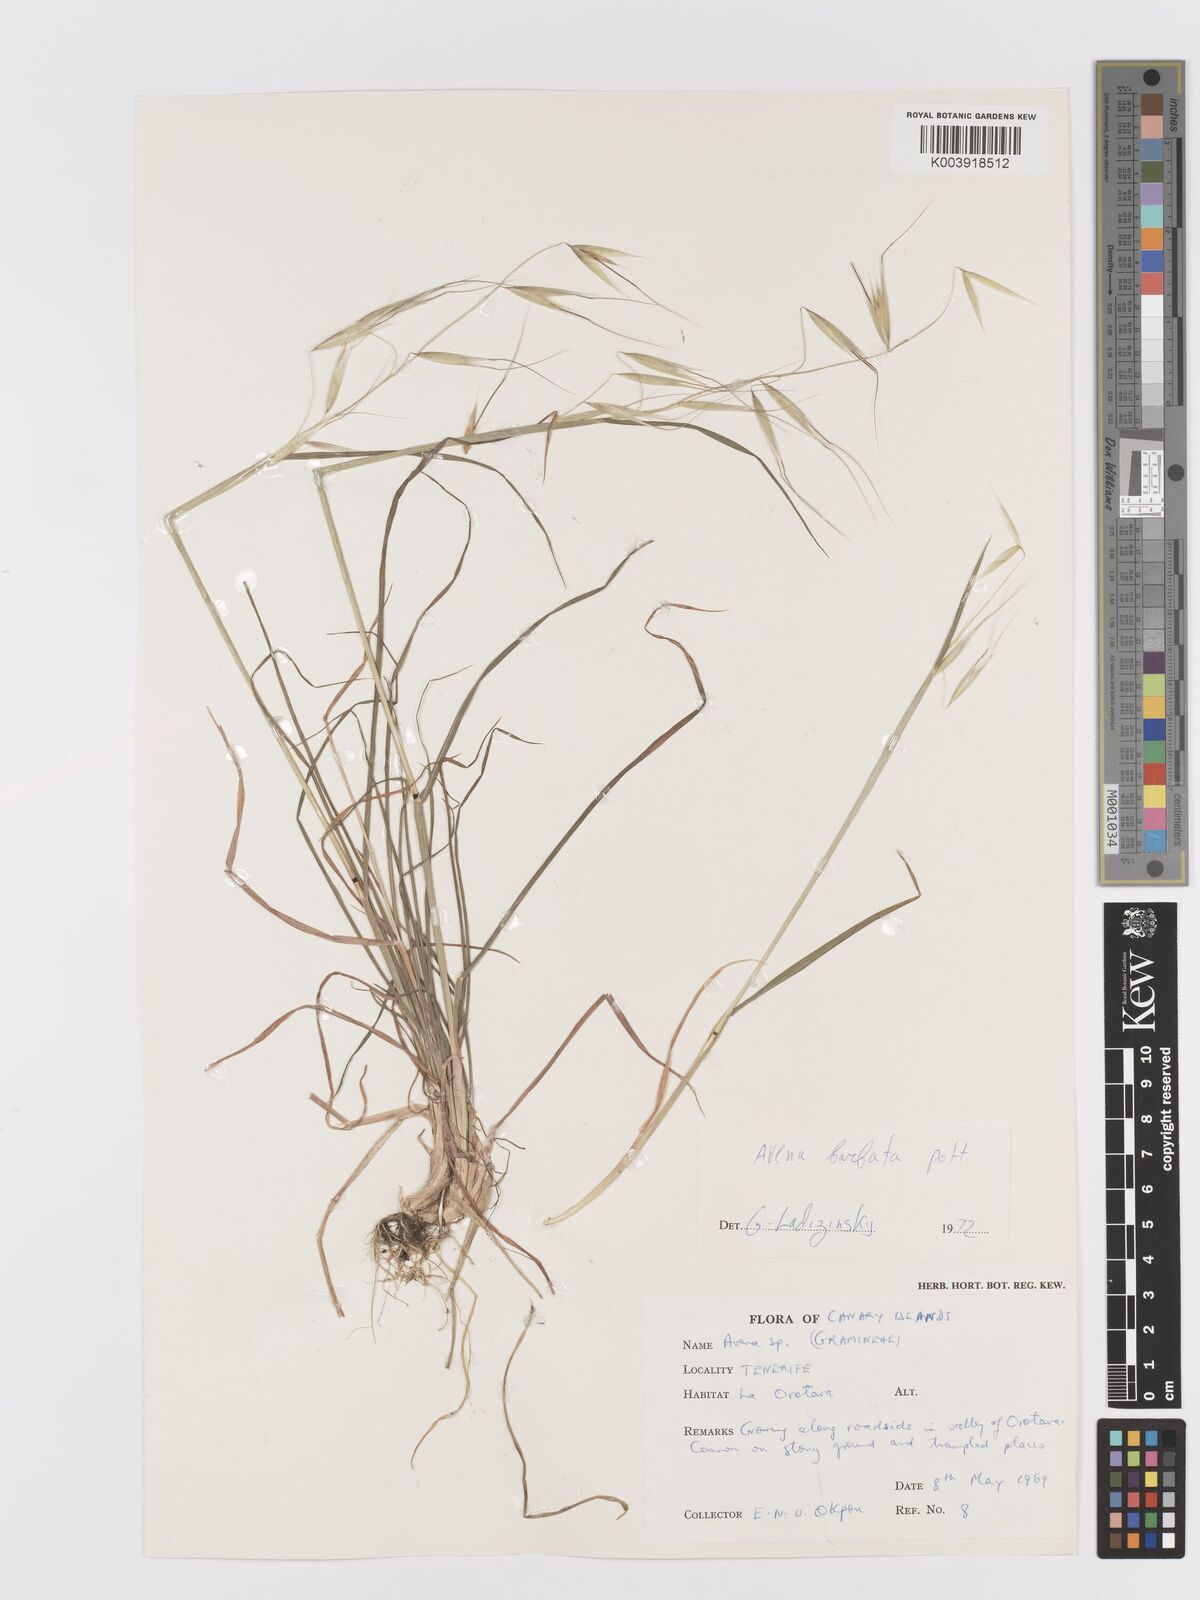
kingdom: Plantae
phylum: Tracheophyta
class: Liliopsida
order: Poales
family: Poaceae
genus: Avena
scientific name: Avena
